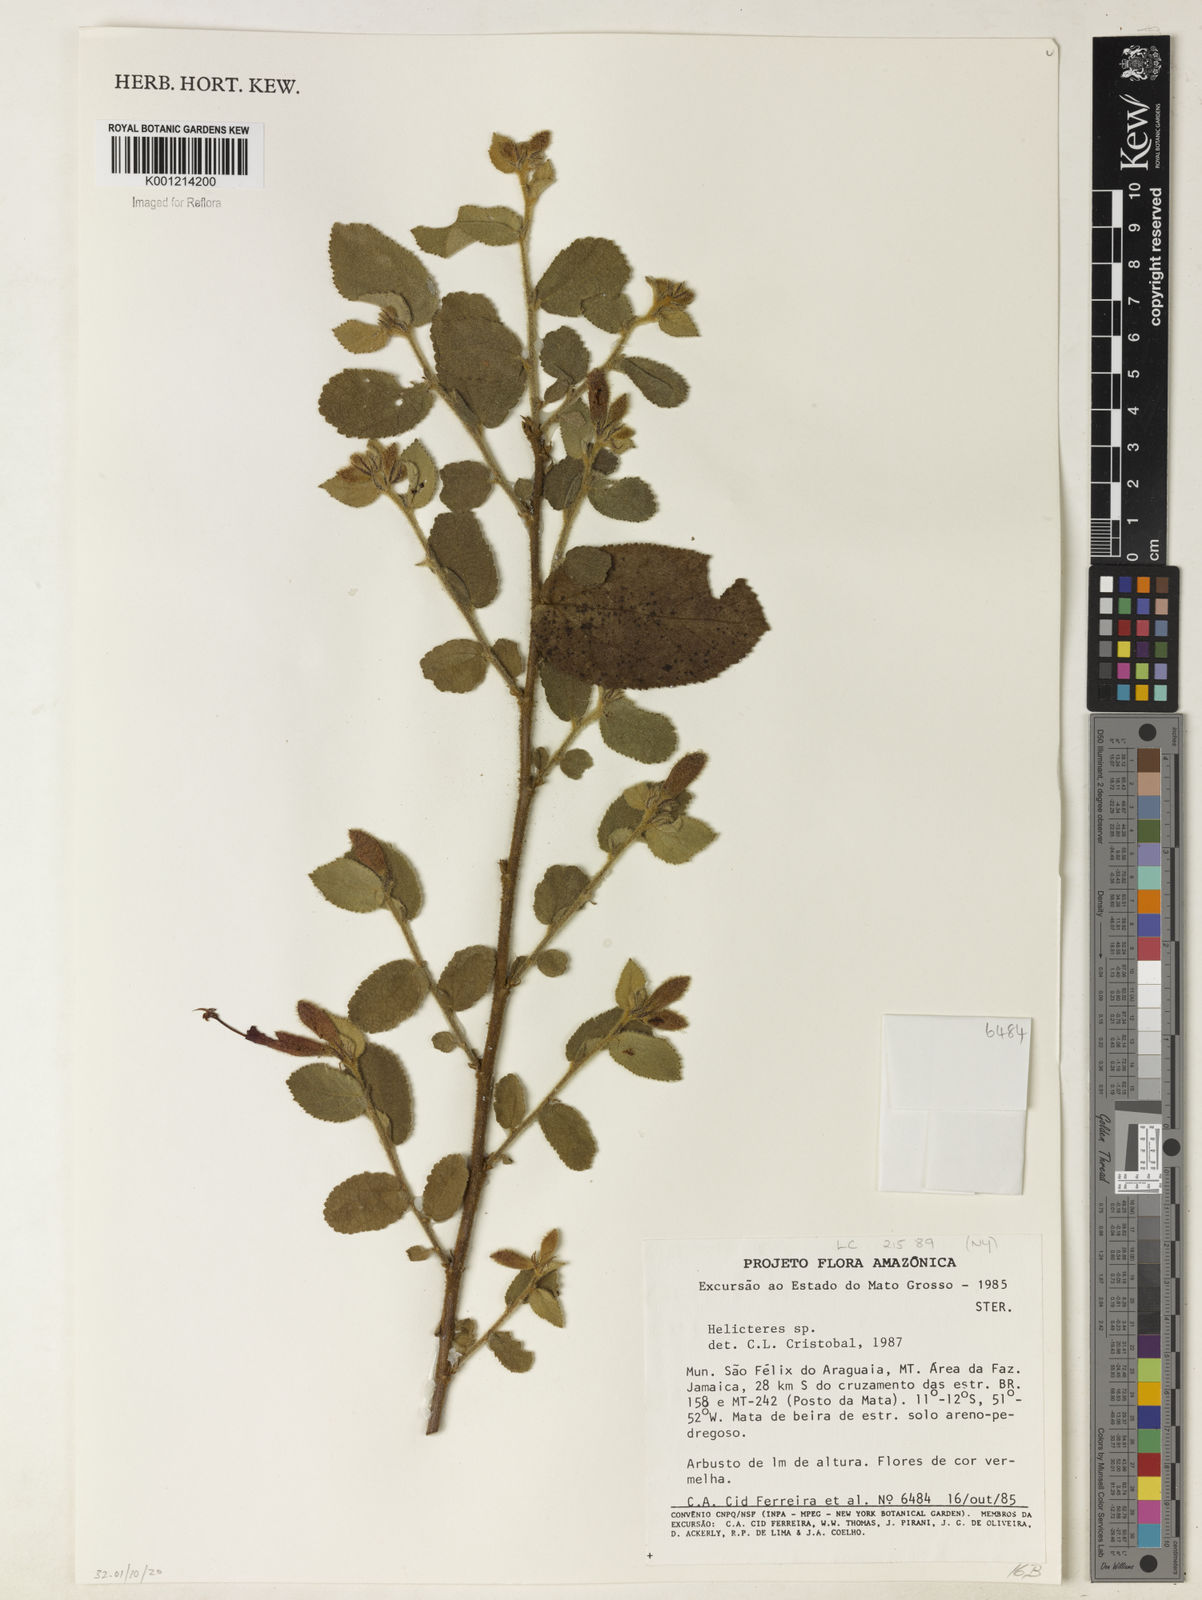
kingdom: Plantae
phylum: Tracheophyta
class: Magnoliopsida
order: Malvales
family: Malvaceae
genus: Helicteres
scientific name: Helicteres aspera
